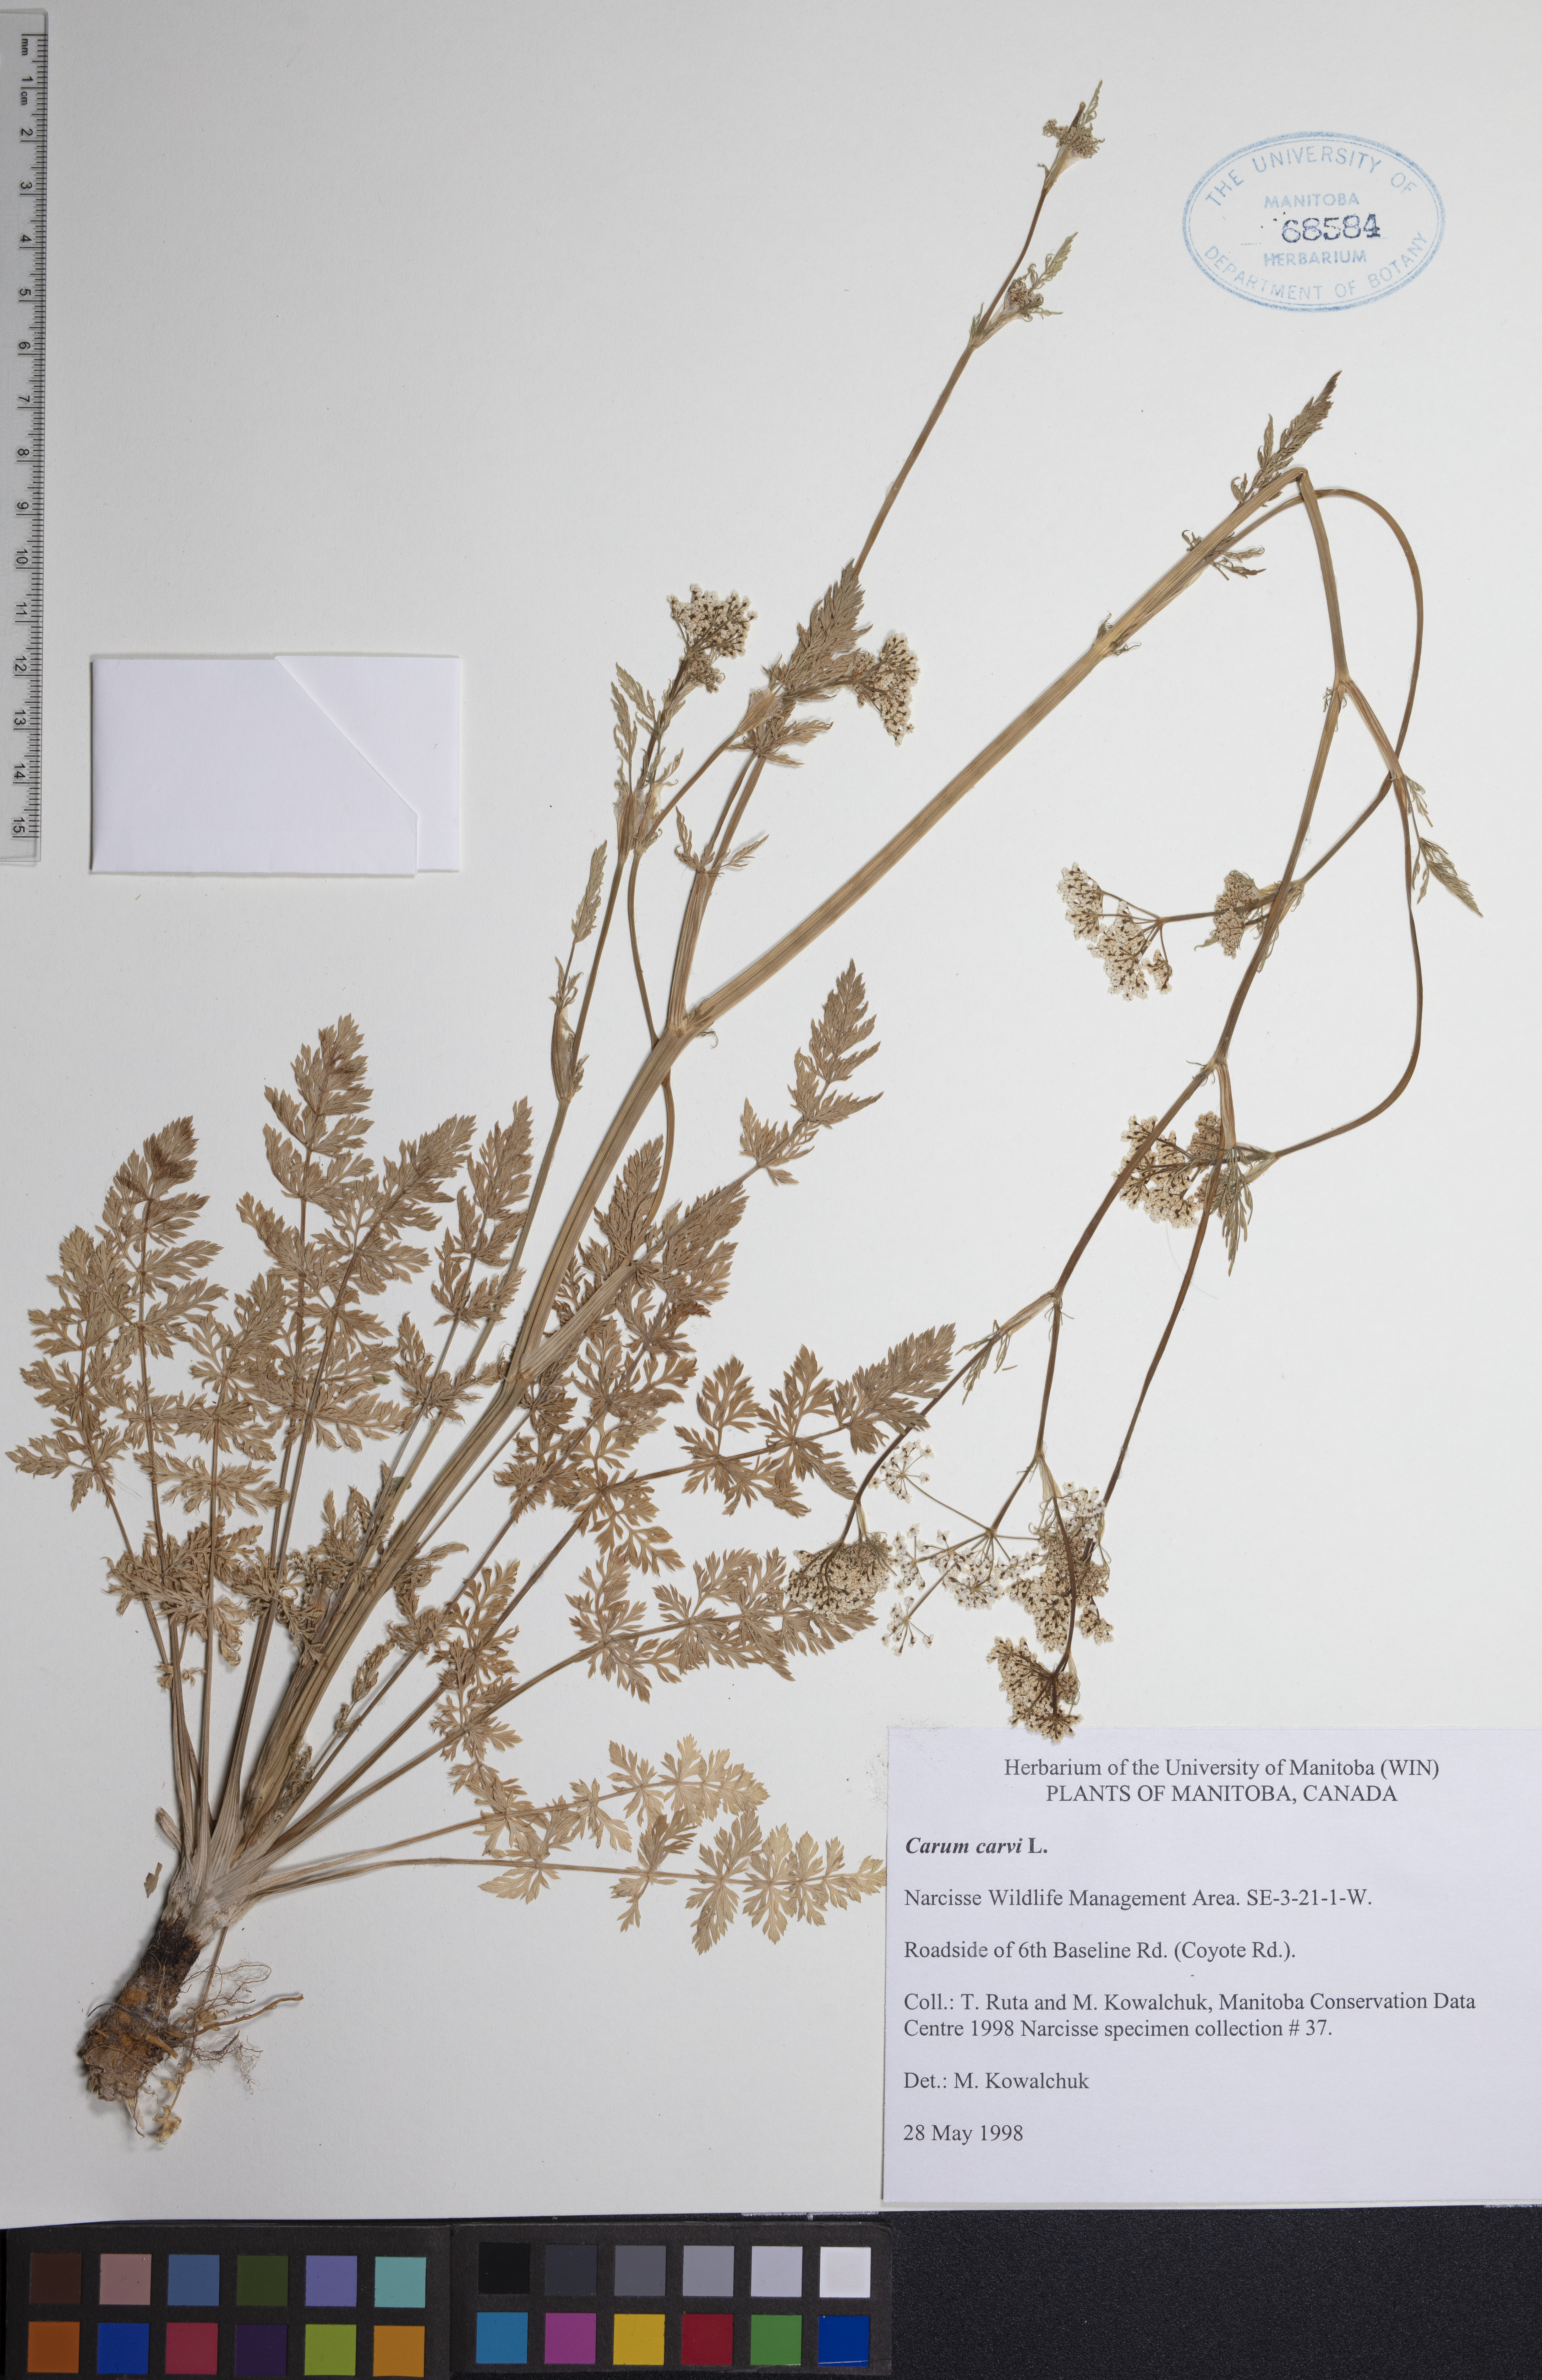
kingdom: Plantae
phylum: Tracheophyta
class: Magnoliopsida
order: Apiales
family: Apiaceae
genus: Carum
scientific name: Carum carvi
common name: Caraway
